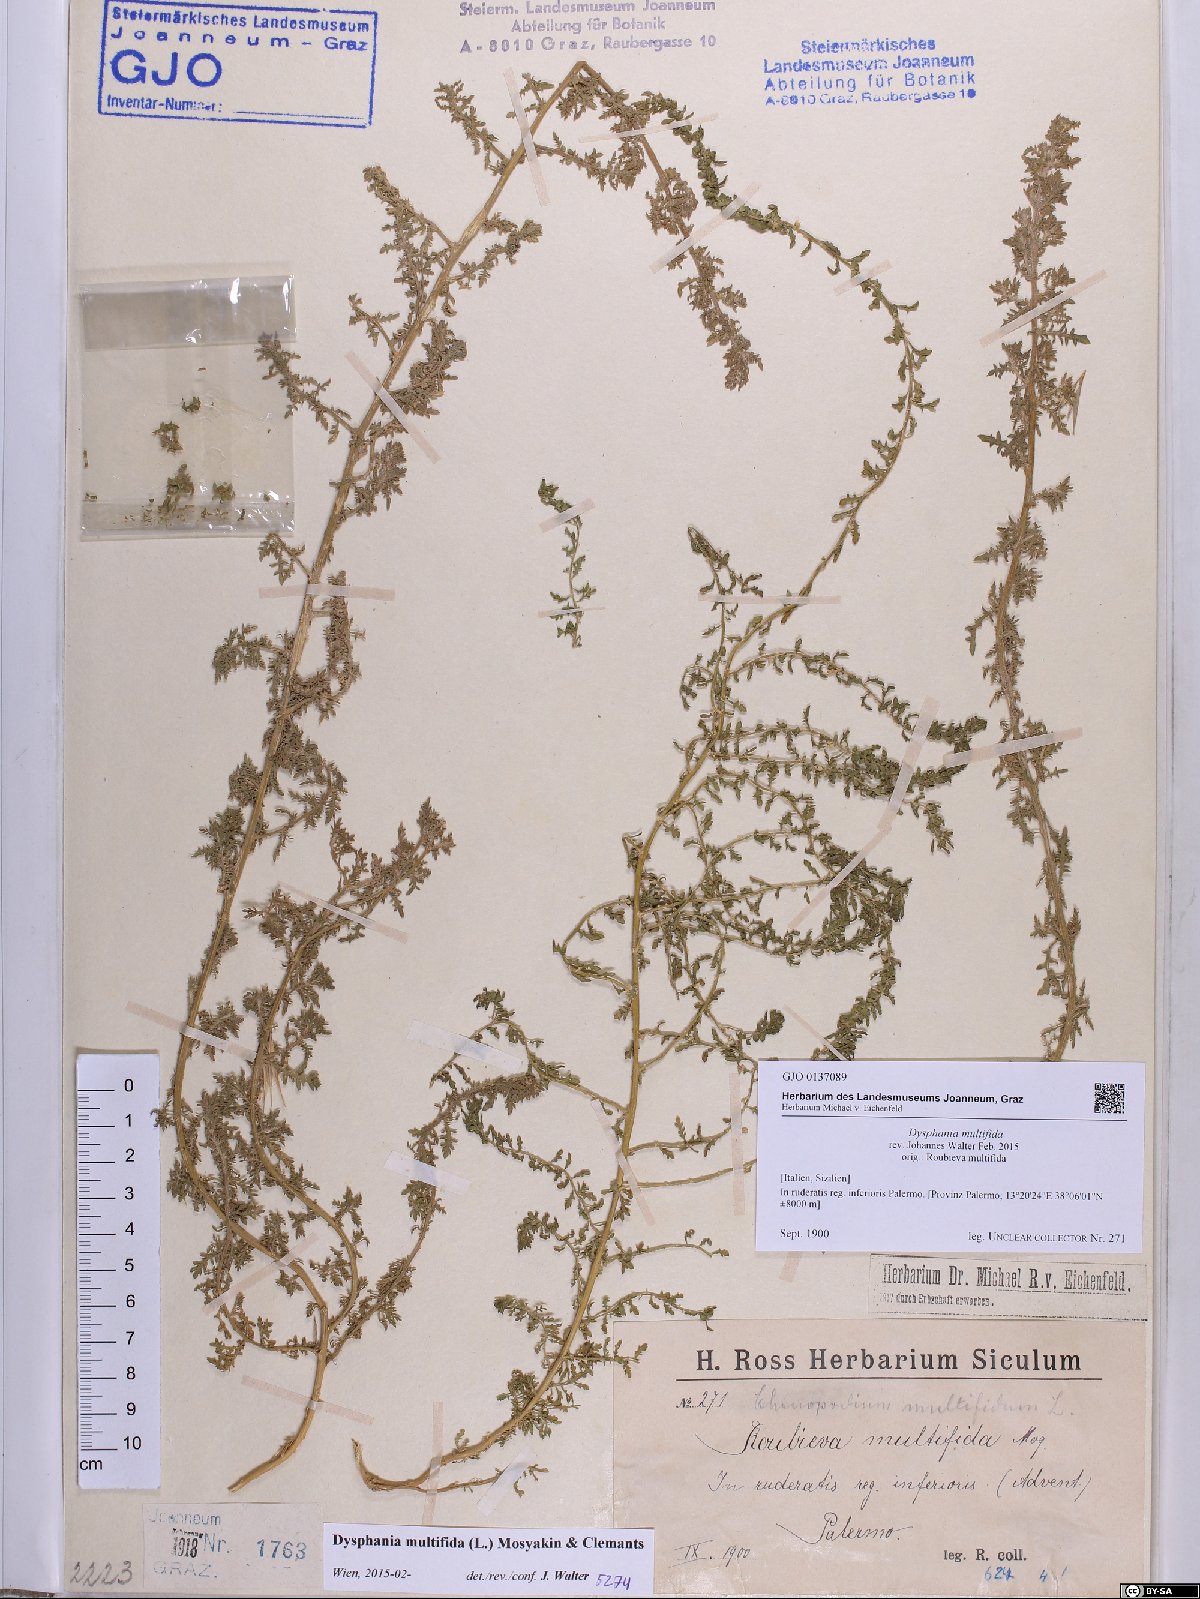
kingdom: Plantae
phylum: Tracheophyta
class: Magnoliopsida
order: Caryophyllales
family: Amaranthaceae
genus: Dysphania
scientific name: Dysphania multifida
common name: Cutleaf goosefoot
